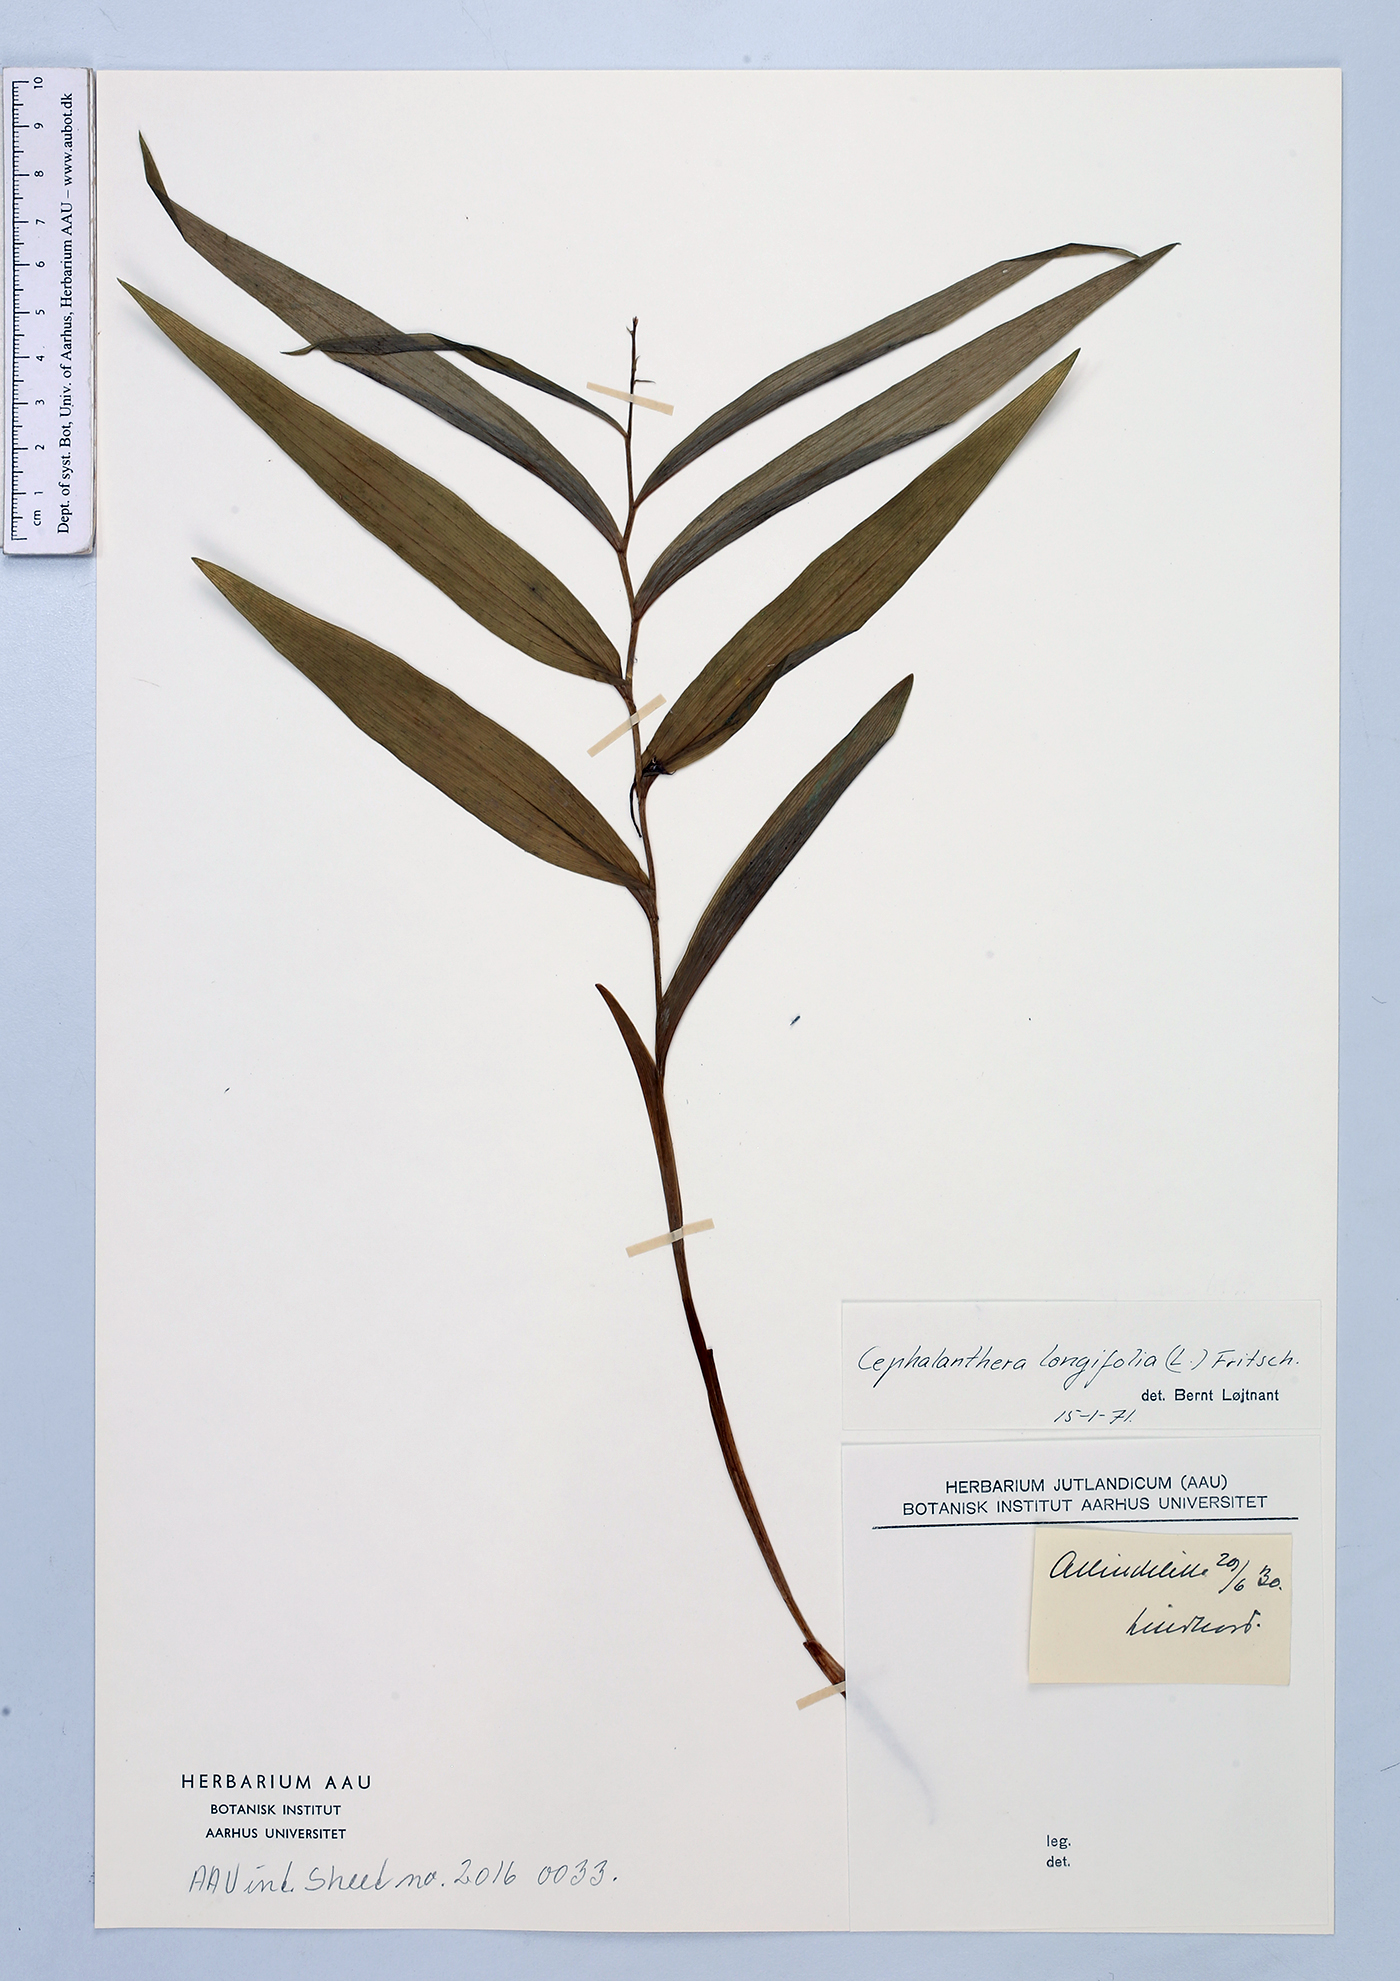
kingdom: Plantae
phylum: Tracheophyta
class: Liliopsida
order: Asparagales
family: Orchidaceae
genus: Cephalanthera
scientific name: Cephalanthera longifolia
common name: Narrow-leaved helleborine
